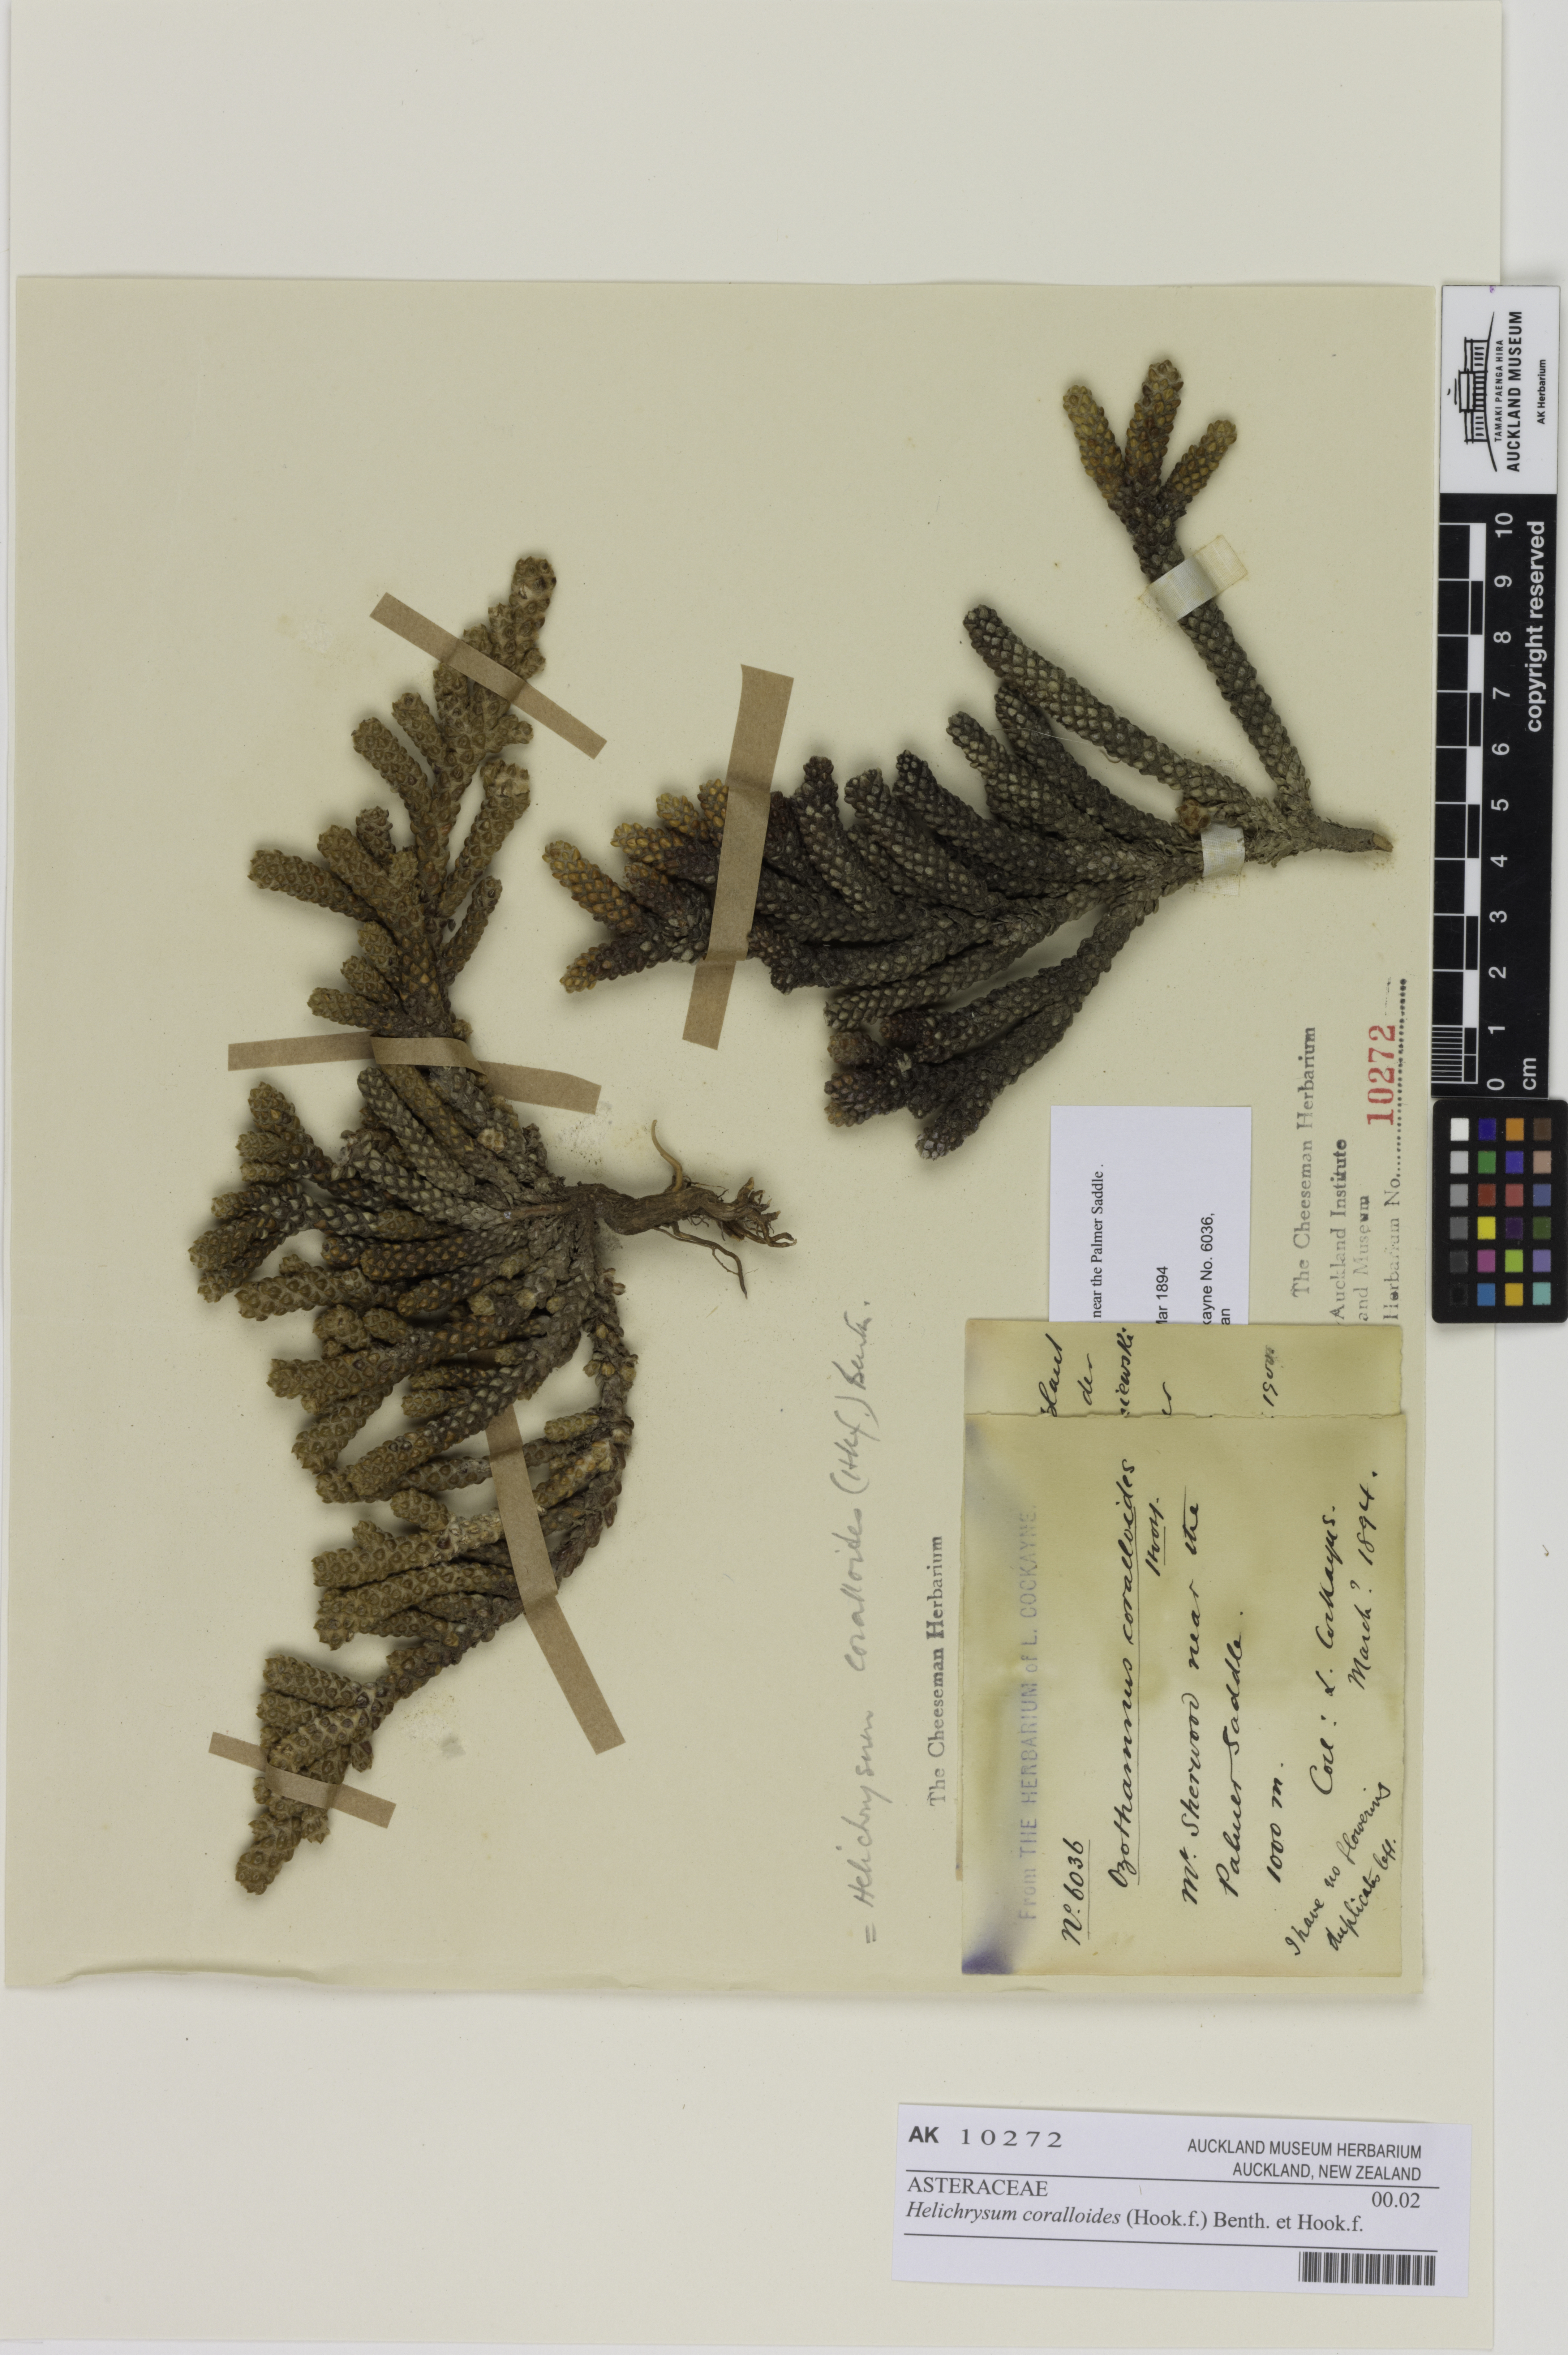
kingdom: Plantae
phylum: Tracheophyta
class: Magnoliopsida
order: Asterales
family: Asteraceae
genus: Ozothamnus
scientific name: Ozothamnus coralloides
